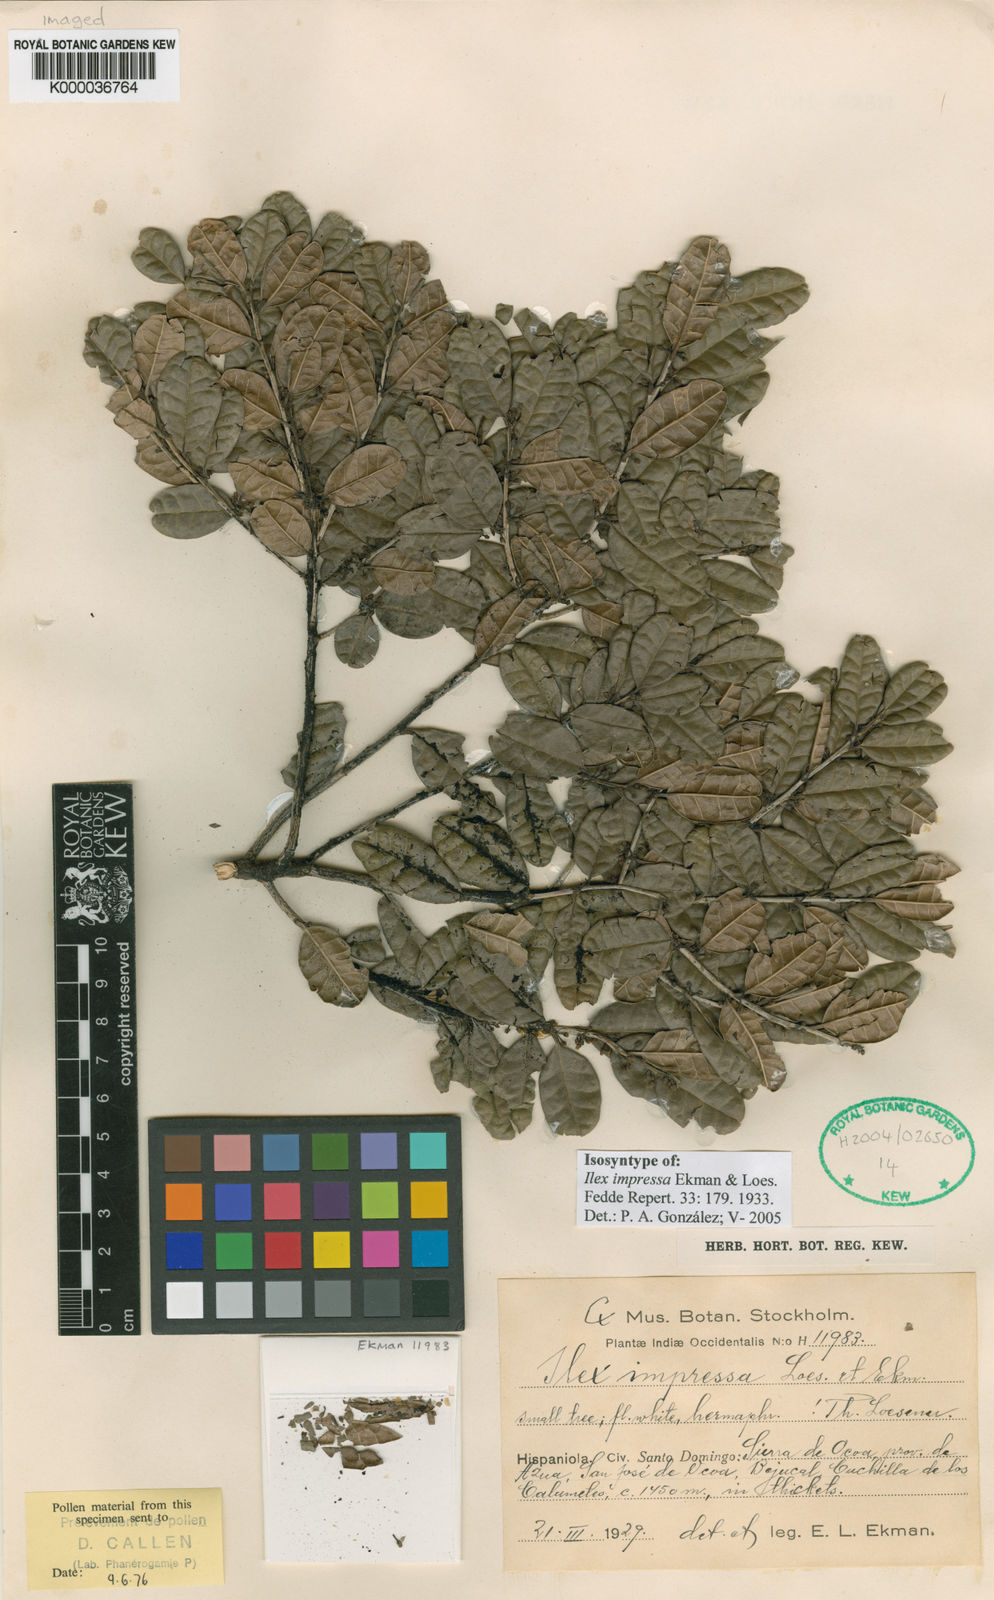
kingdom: Plantae
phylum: Tracheophyta
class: Magnoliopsida
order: Aquifoliales
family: Aquifoliaceae
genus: Ilex
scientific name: Ilex impressa
